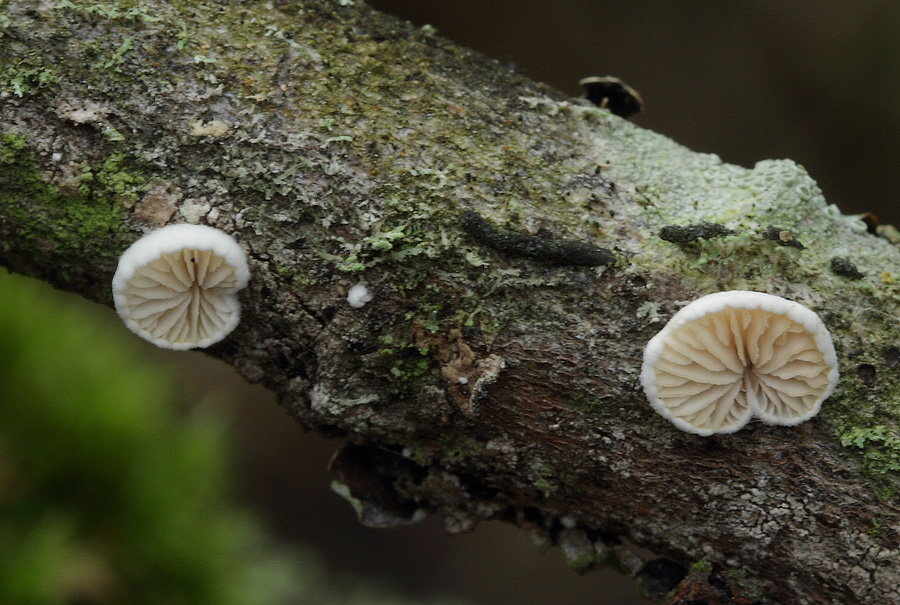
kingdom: Fungi
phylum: Basidiomycota
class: Agaricomycetes
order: Agaricales
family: Crepidotaceae
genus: Crepidotus
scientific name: Crepidotus cesatii
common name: almindelig muslingesvamp
